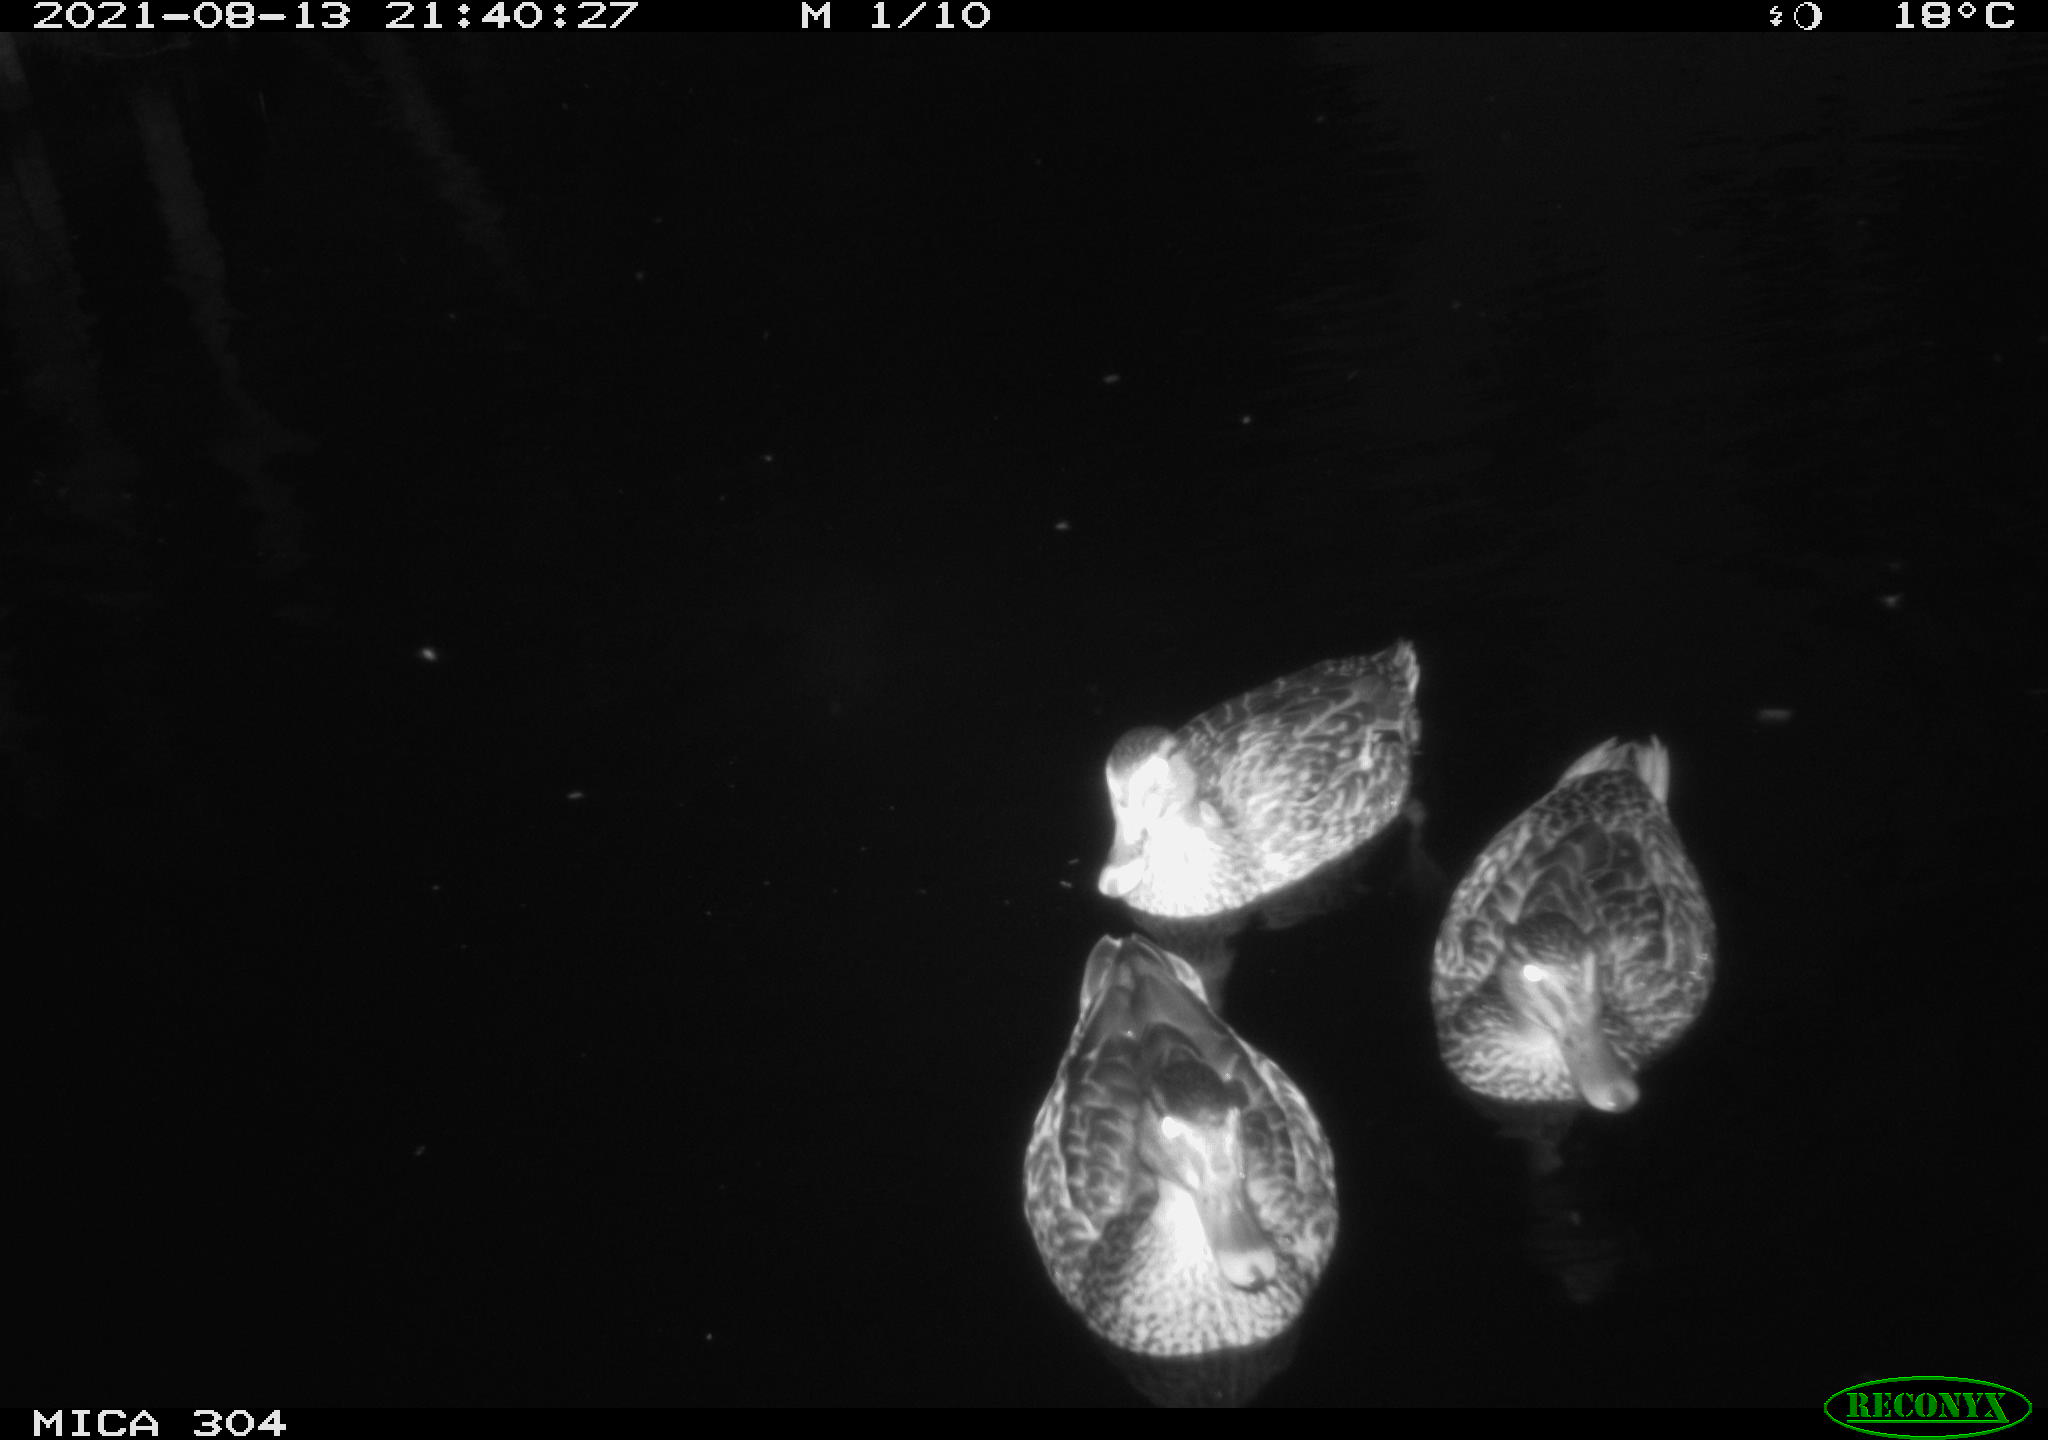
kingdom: Animalia
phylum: Chordata
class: Aves
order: Anseriformes
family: Anatidae
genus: Anas
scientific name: Anas platyrhynchos
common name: Mallard
